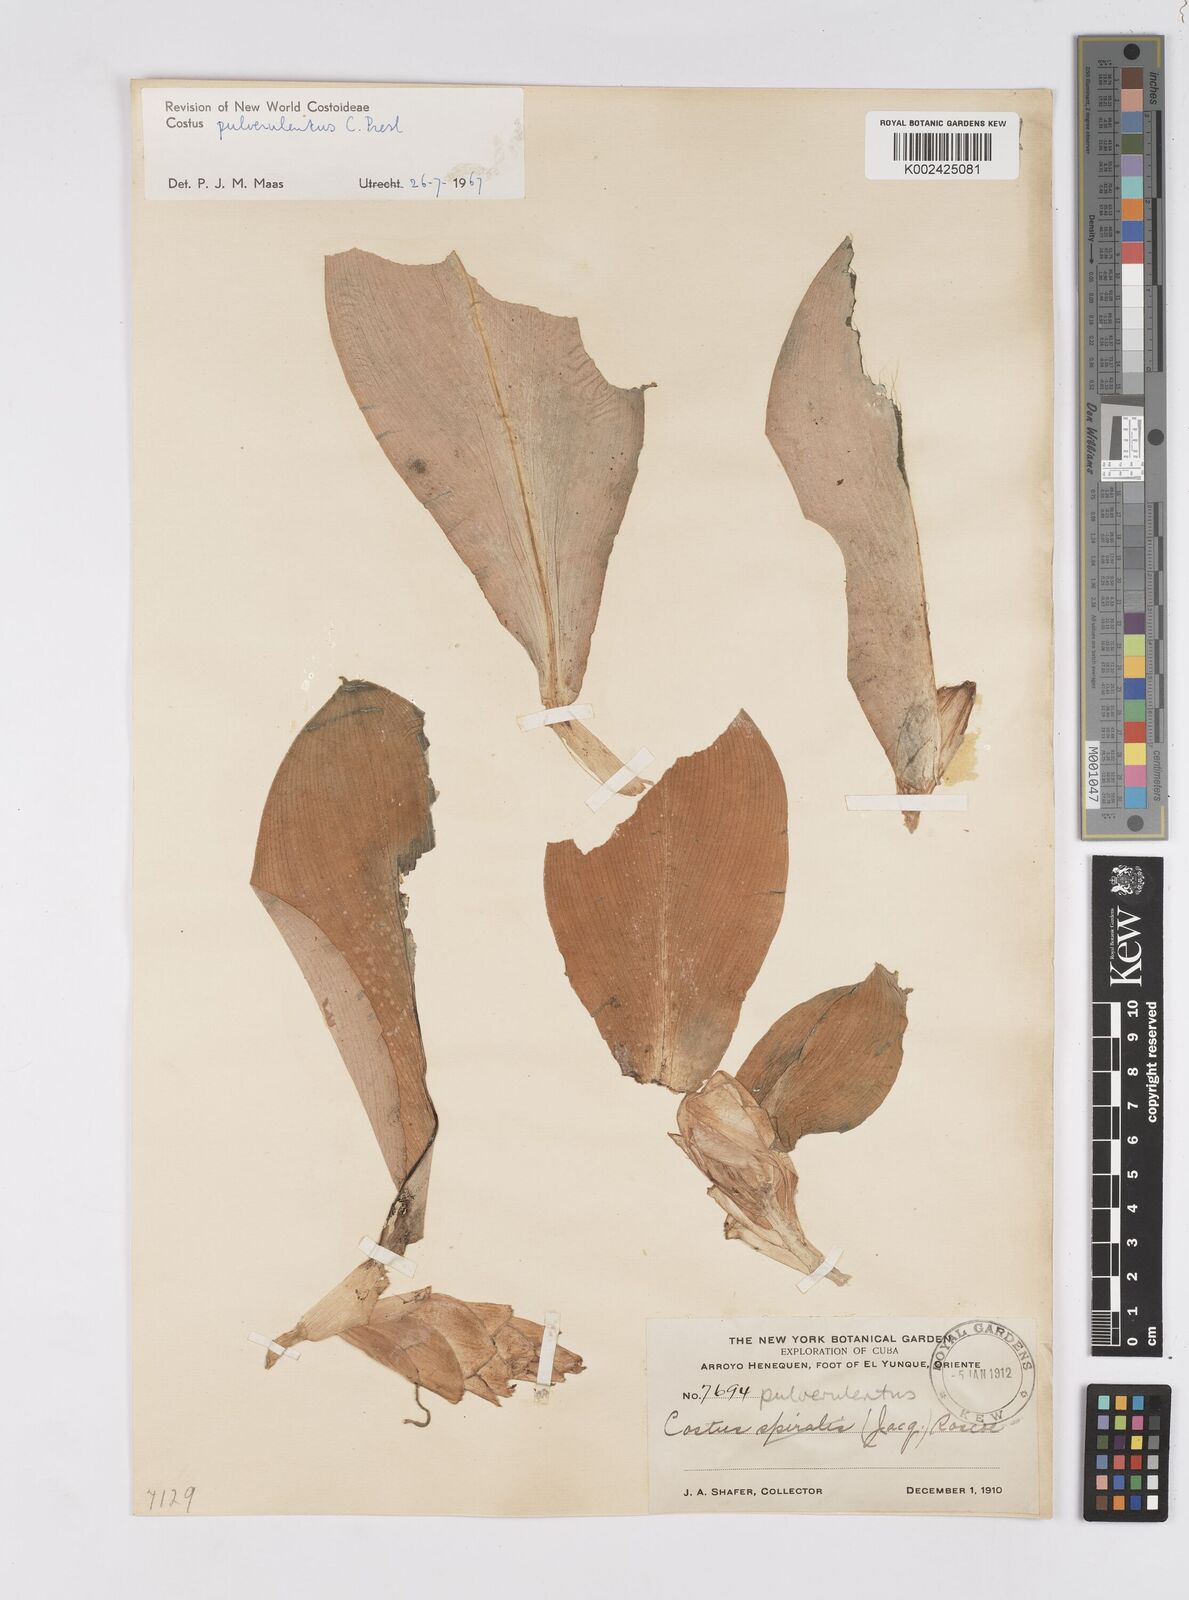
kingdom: Plantae
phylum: Tracheophyta
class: Liliopsida
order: Zingiberales
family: Costaceae
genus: Costus
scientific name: Costus pulverulentus
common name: Spiral ginger
